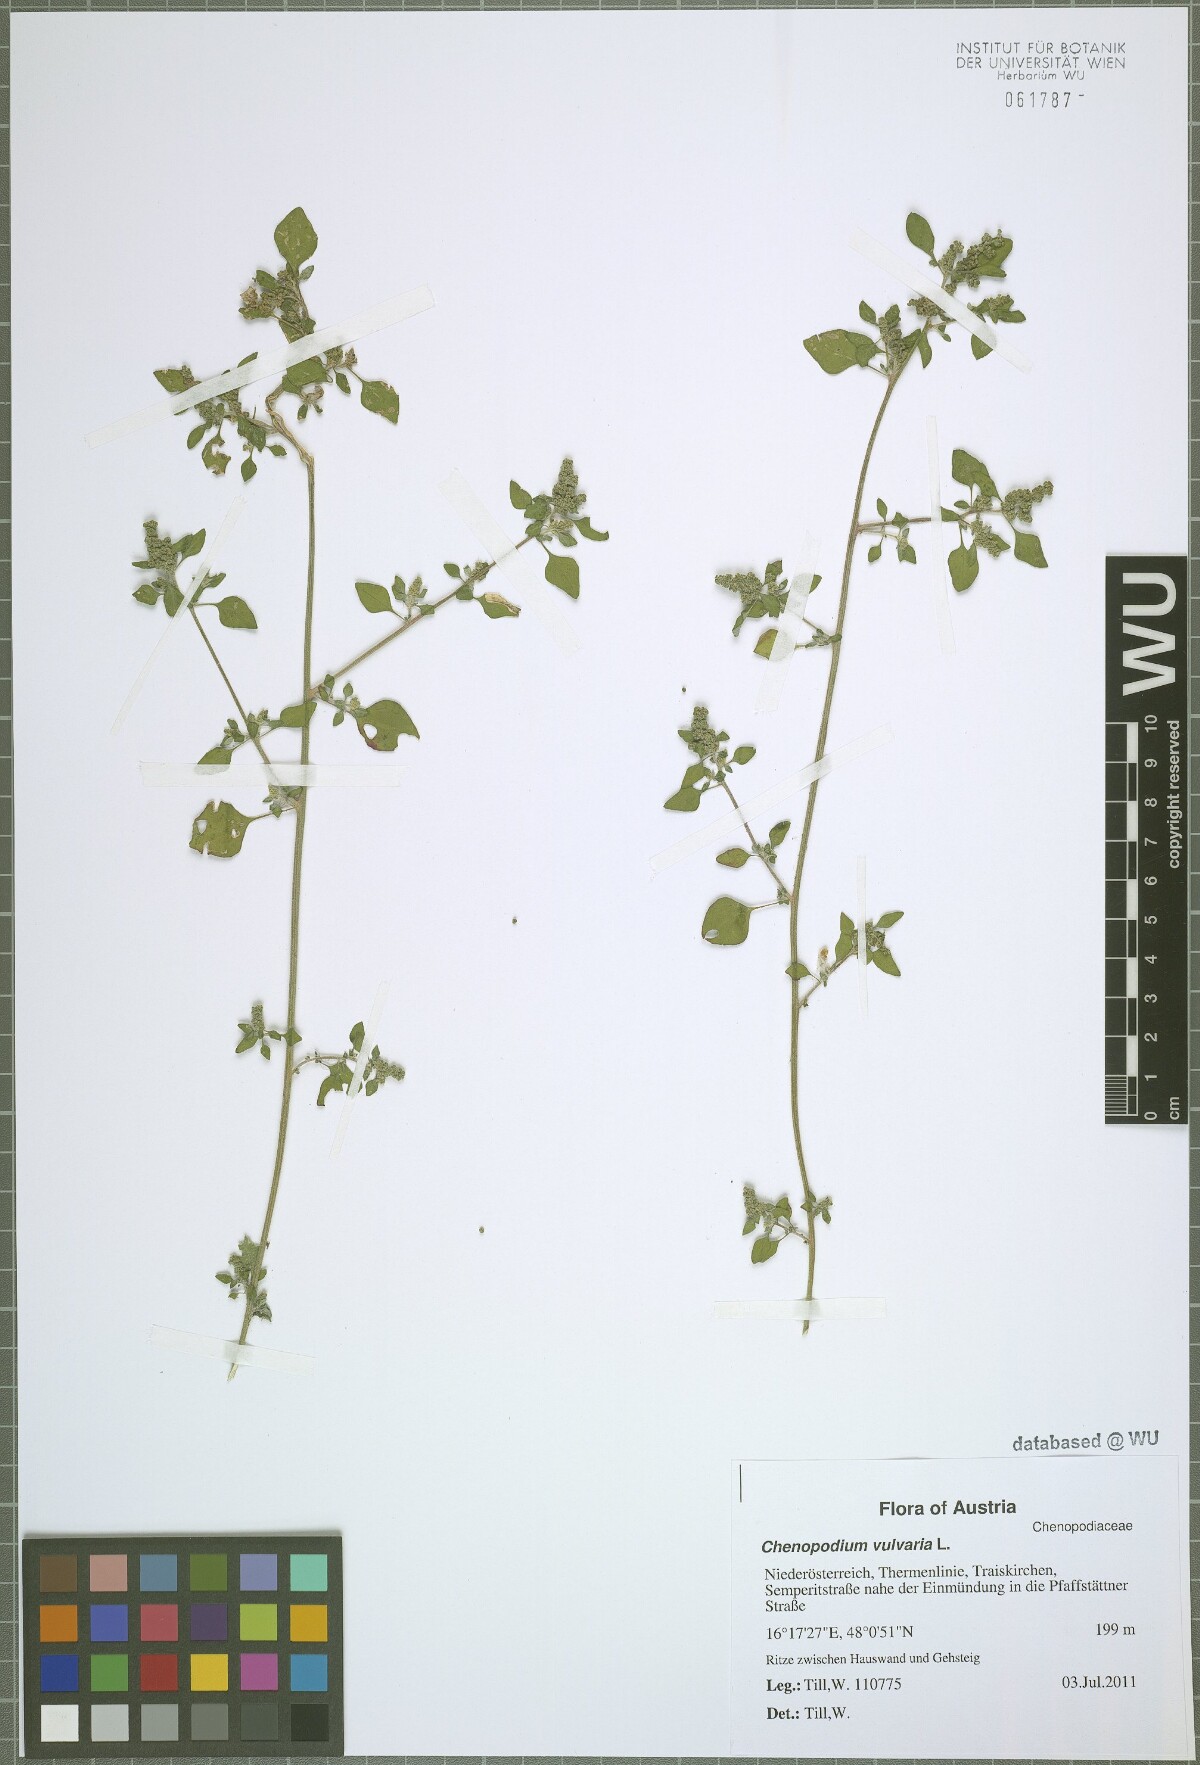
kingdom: Plantae
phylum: Tracheophyta
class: Magnoliopsida
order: Caryophyllales
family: Amaranthaceae
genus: Chenopodium
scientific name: Chenopodium vulvaria
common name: Stinking goosefoot
